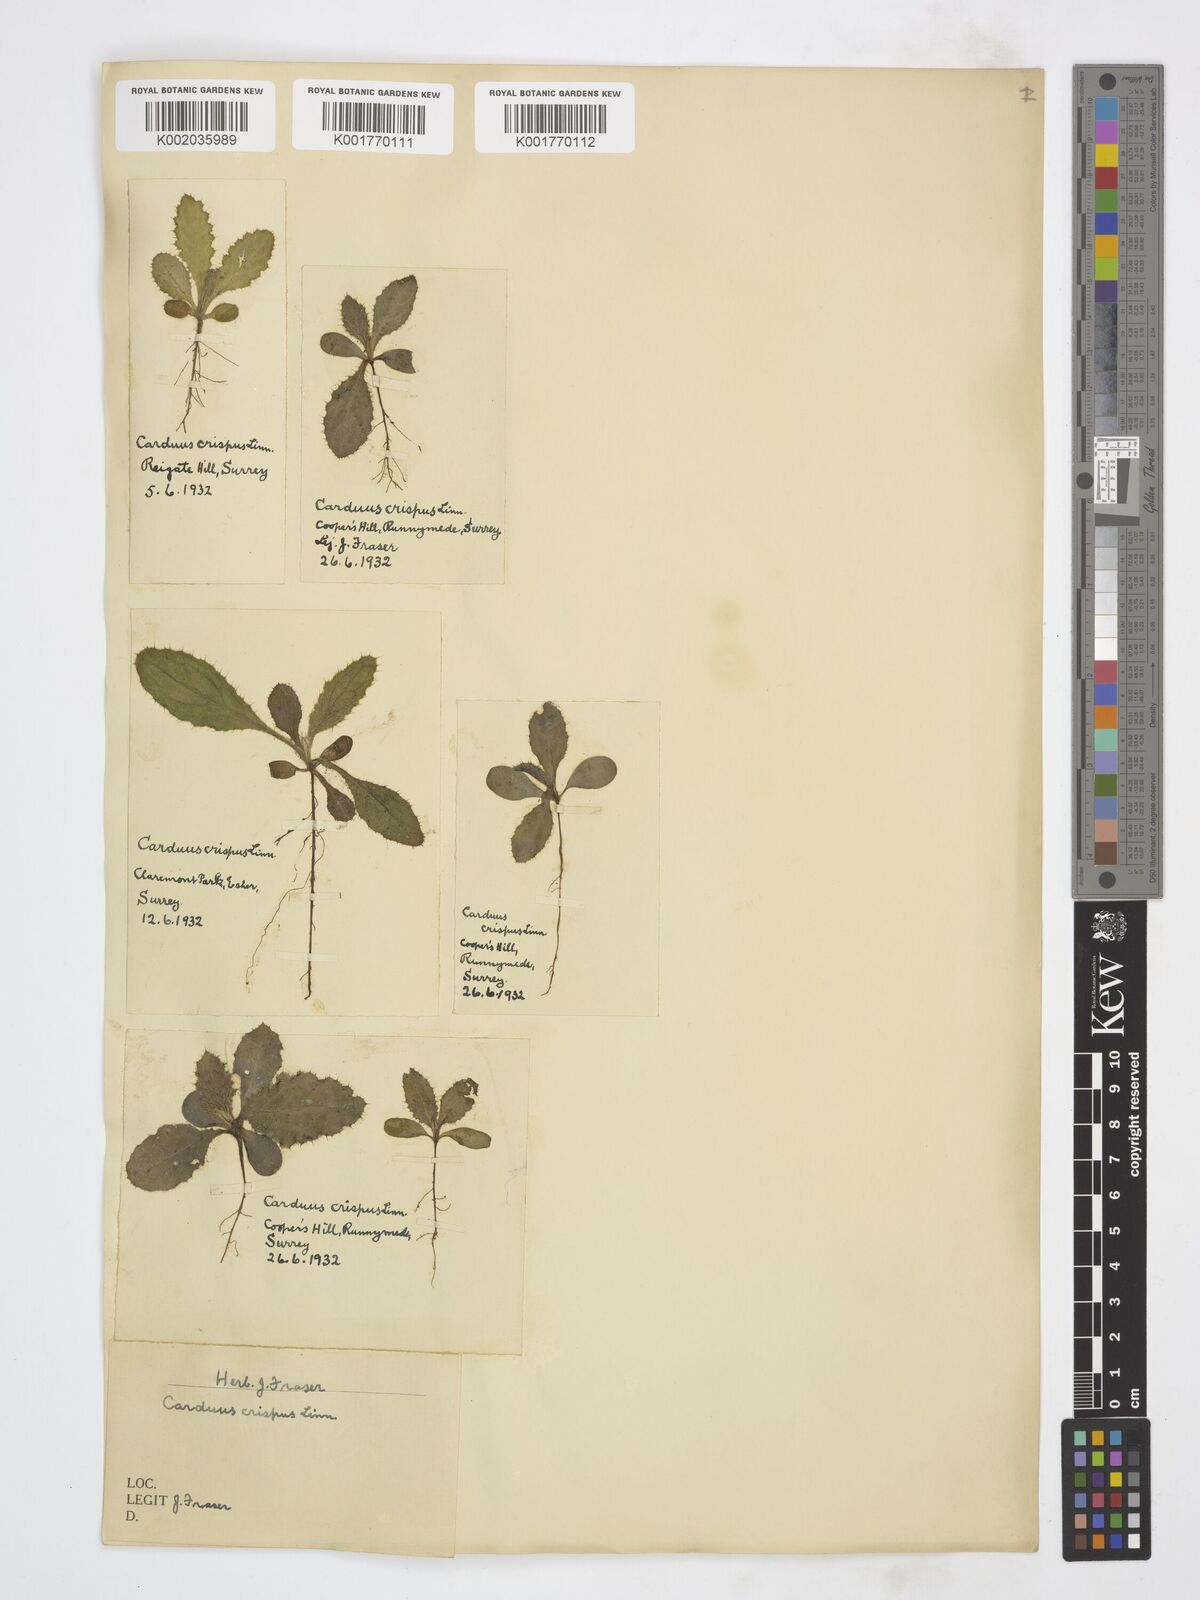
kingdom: Plantae
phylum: Tracheophyta
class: Magnoliopsida
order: Asterales
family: Asteraceae
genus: Carduus
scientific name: Carduus crispus
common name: Welted thistle
